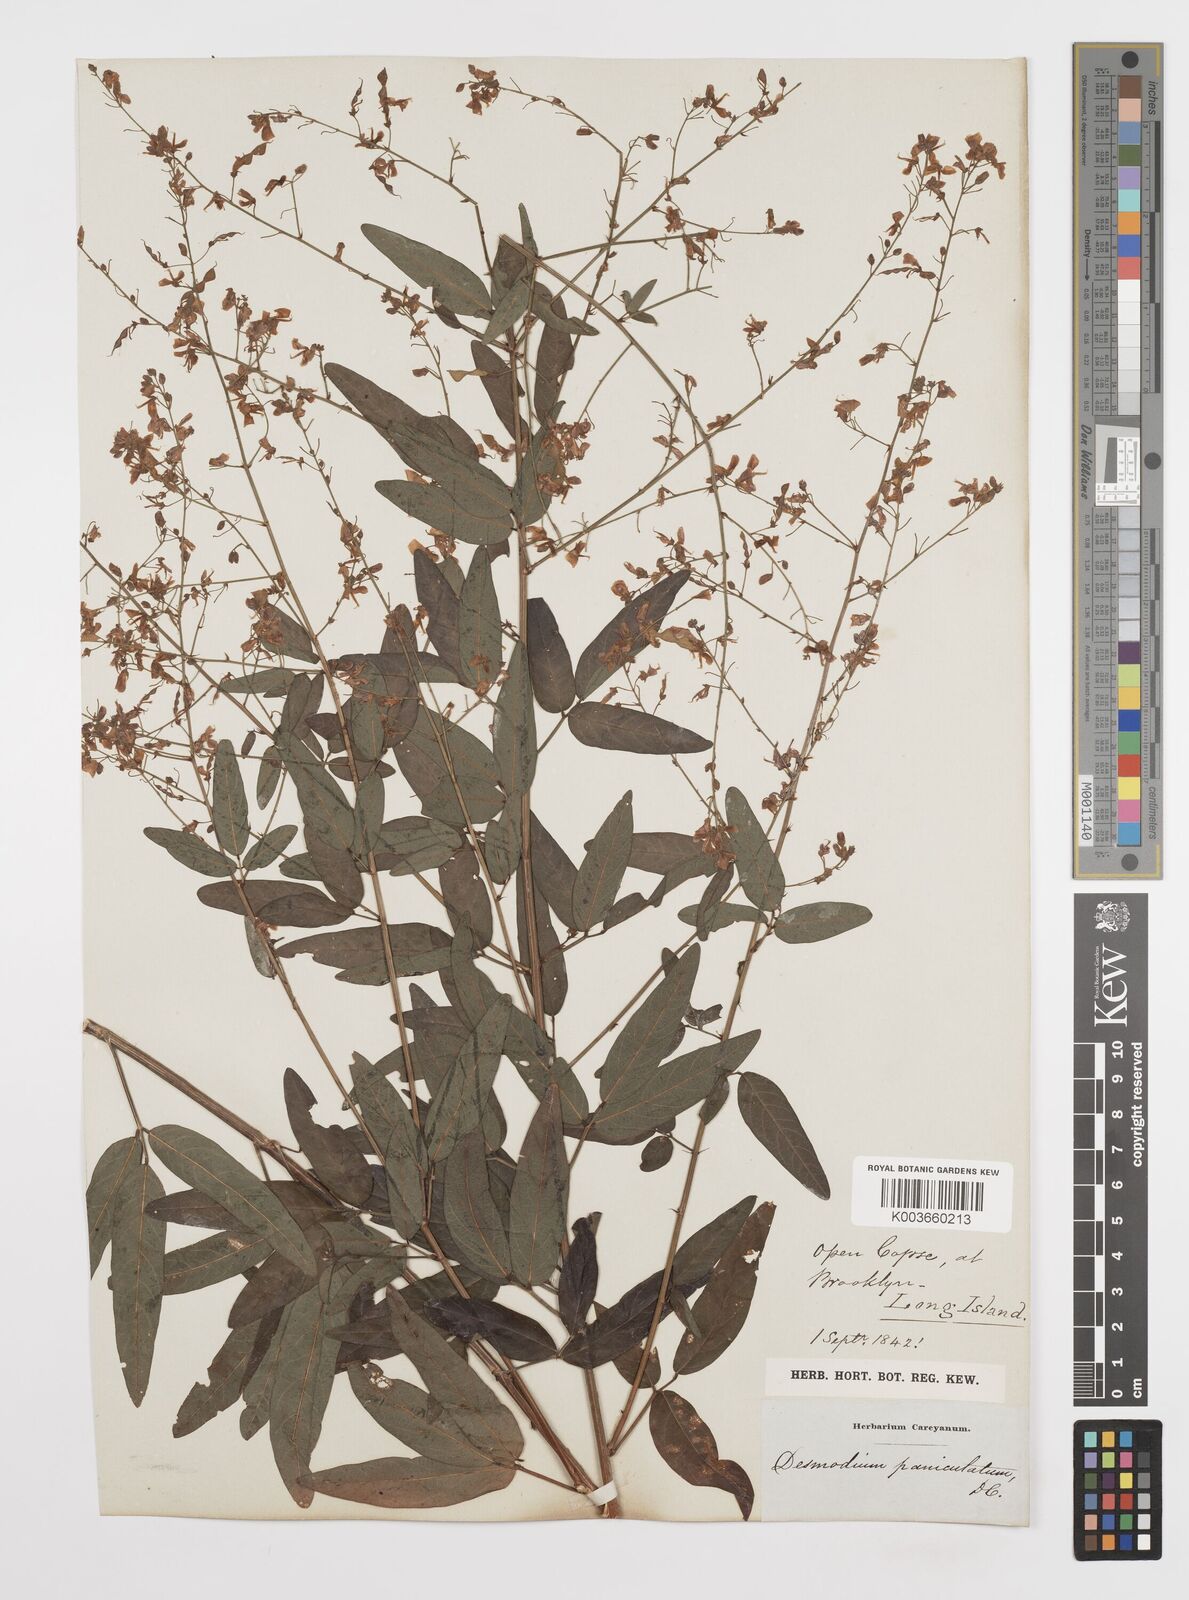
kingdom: Plantae
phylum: Tracheophyta
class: Magnoliopsida
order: Fabales
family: Fabaceae
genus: Desmodium
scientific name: Desmodium paniculatum
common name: Panicled tick-clover
